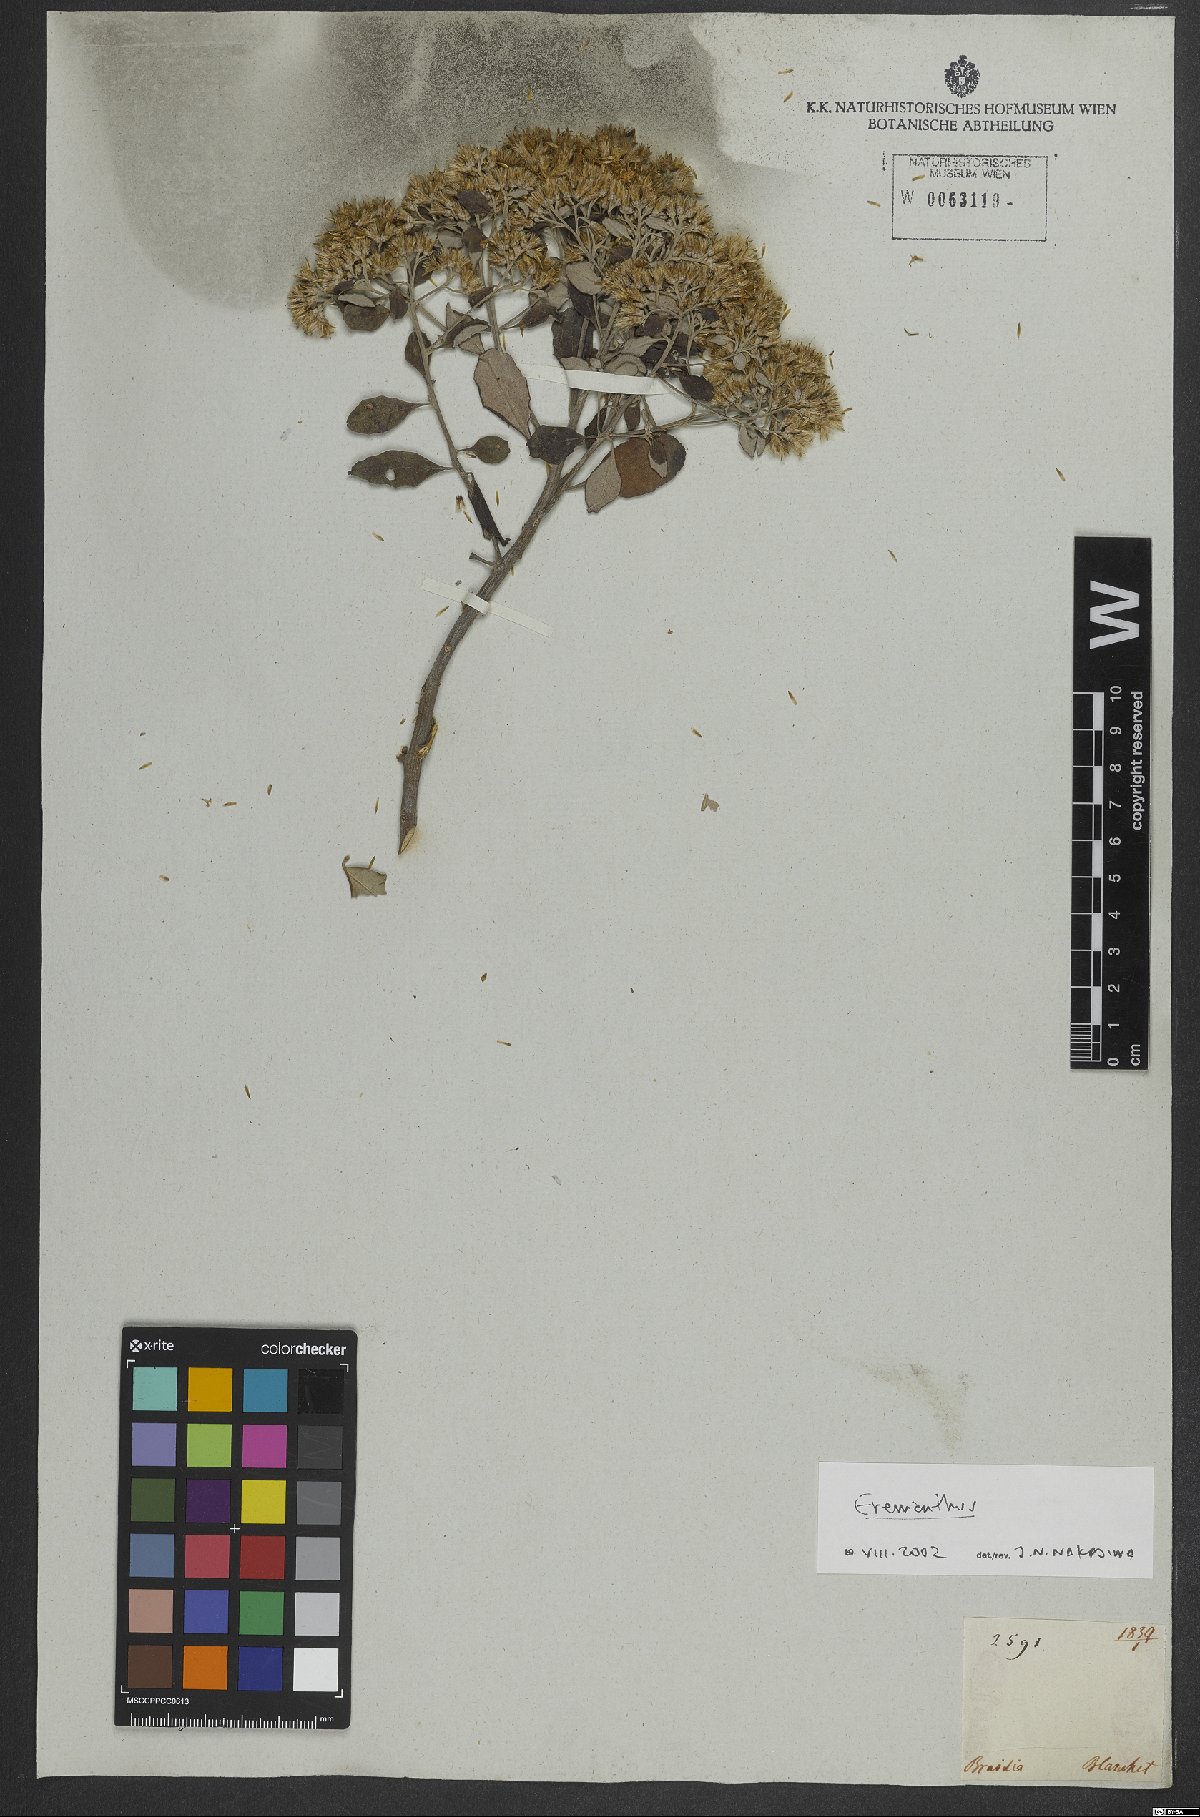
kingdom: Plantae
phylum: Tracheophyta
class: Magnoliopsida
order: Asterales
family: Asteraceae
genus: Eremanthus
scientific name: Eremanthus
